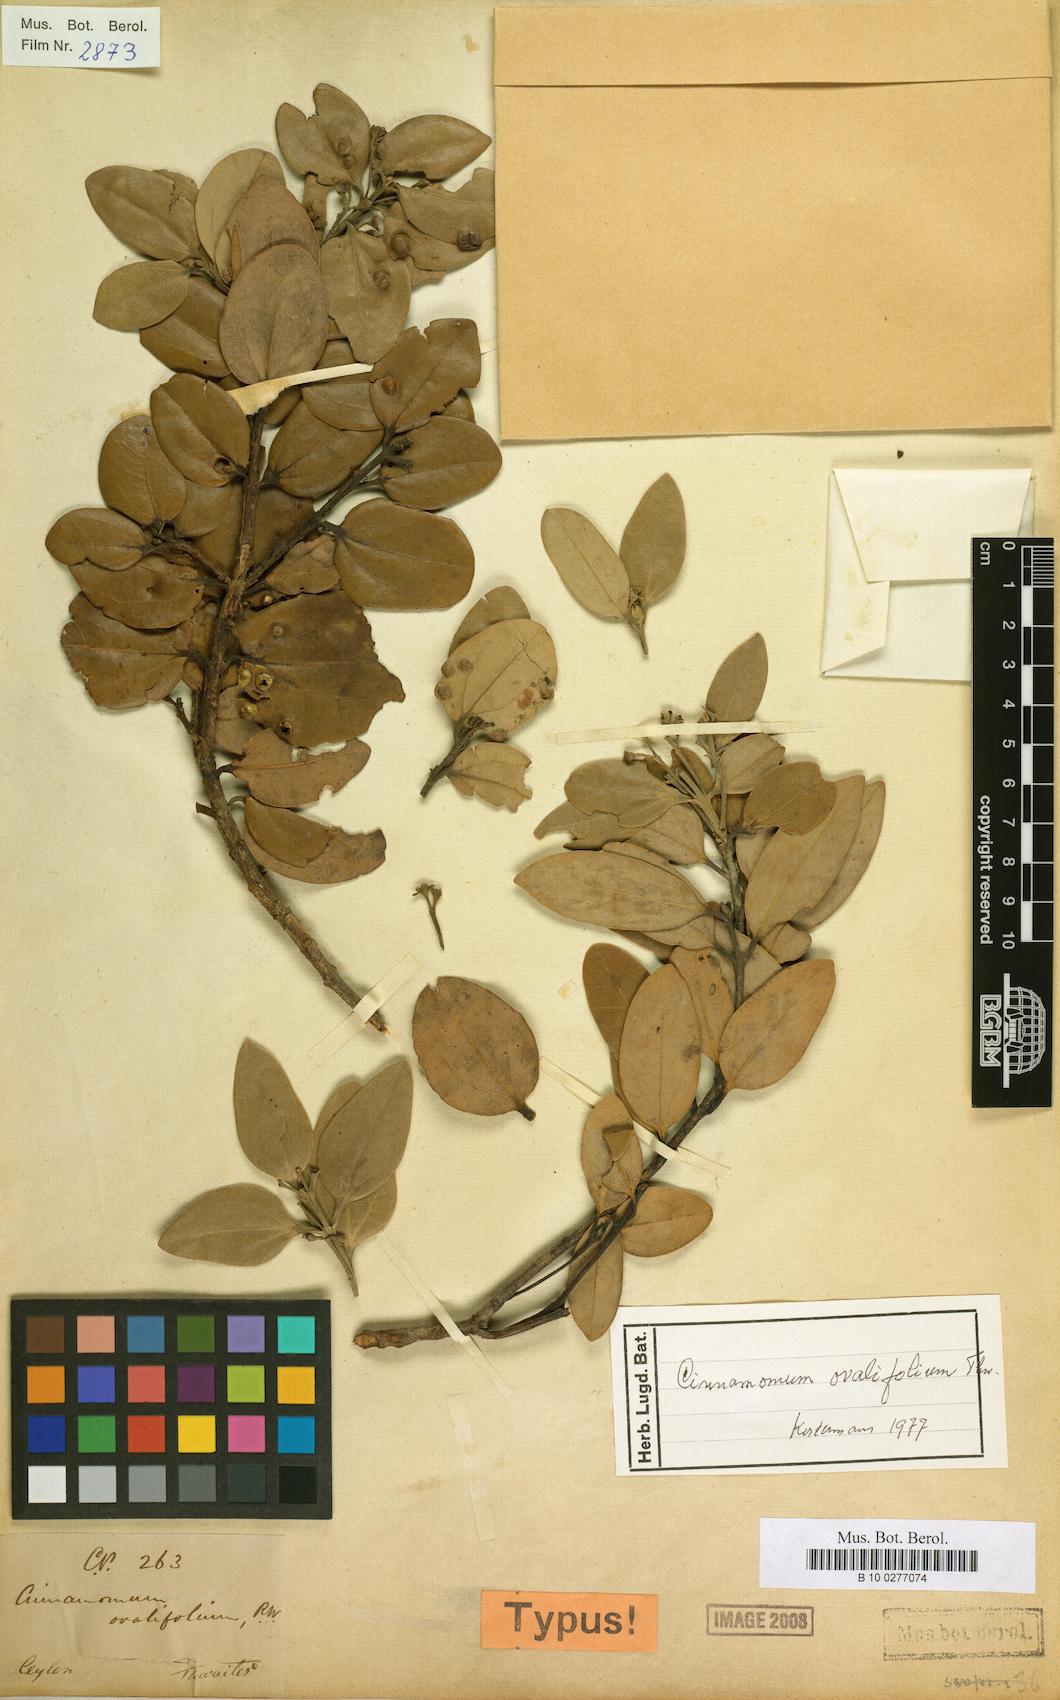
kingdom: Plantae
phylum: Tracheophyta
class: Magnoliopsida
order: Laurales
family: Lauraceae
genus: Cinnamomum
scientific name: Cinnamomum ovalifolium
